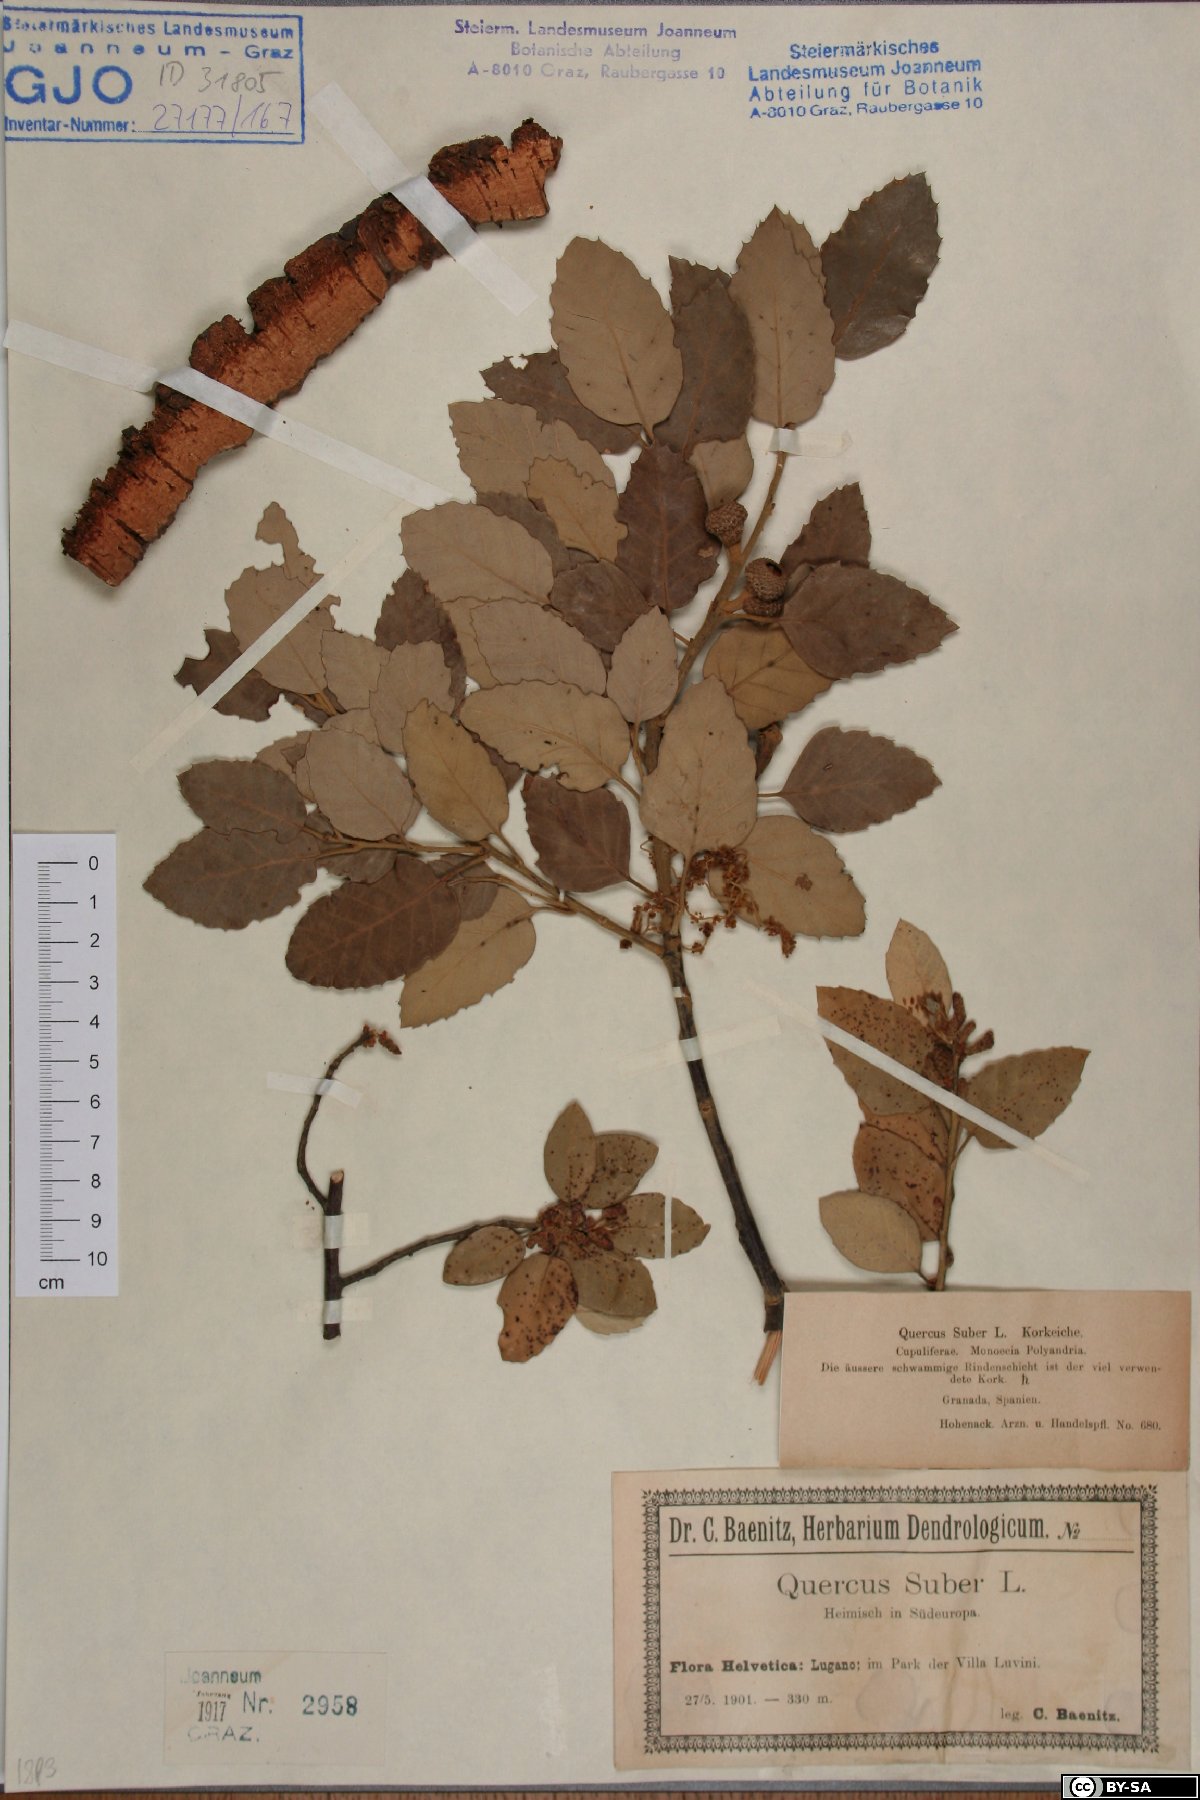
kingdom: Plantae
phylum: Tracheophyta
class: Magnoliopsida
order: Fagales
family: Fagaceae
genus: Quercus
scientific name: Quercus suber
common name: Cork oak
